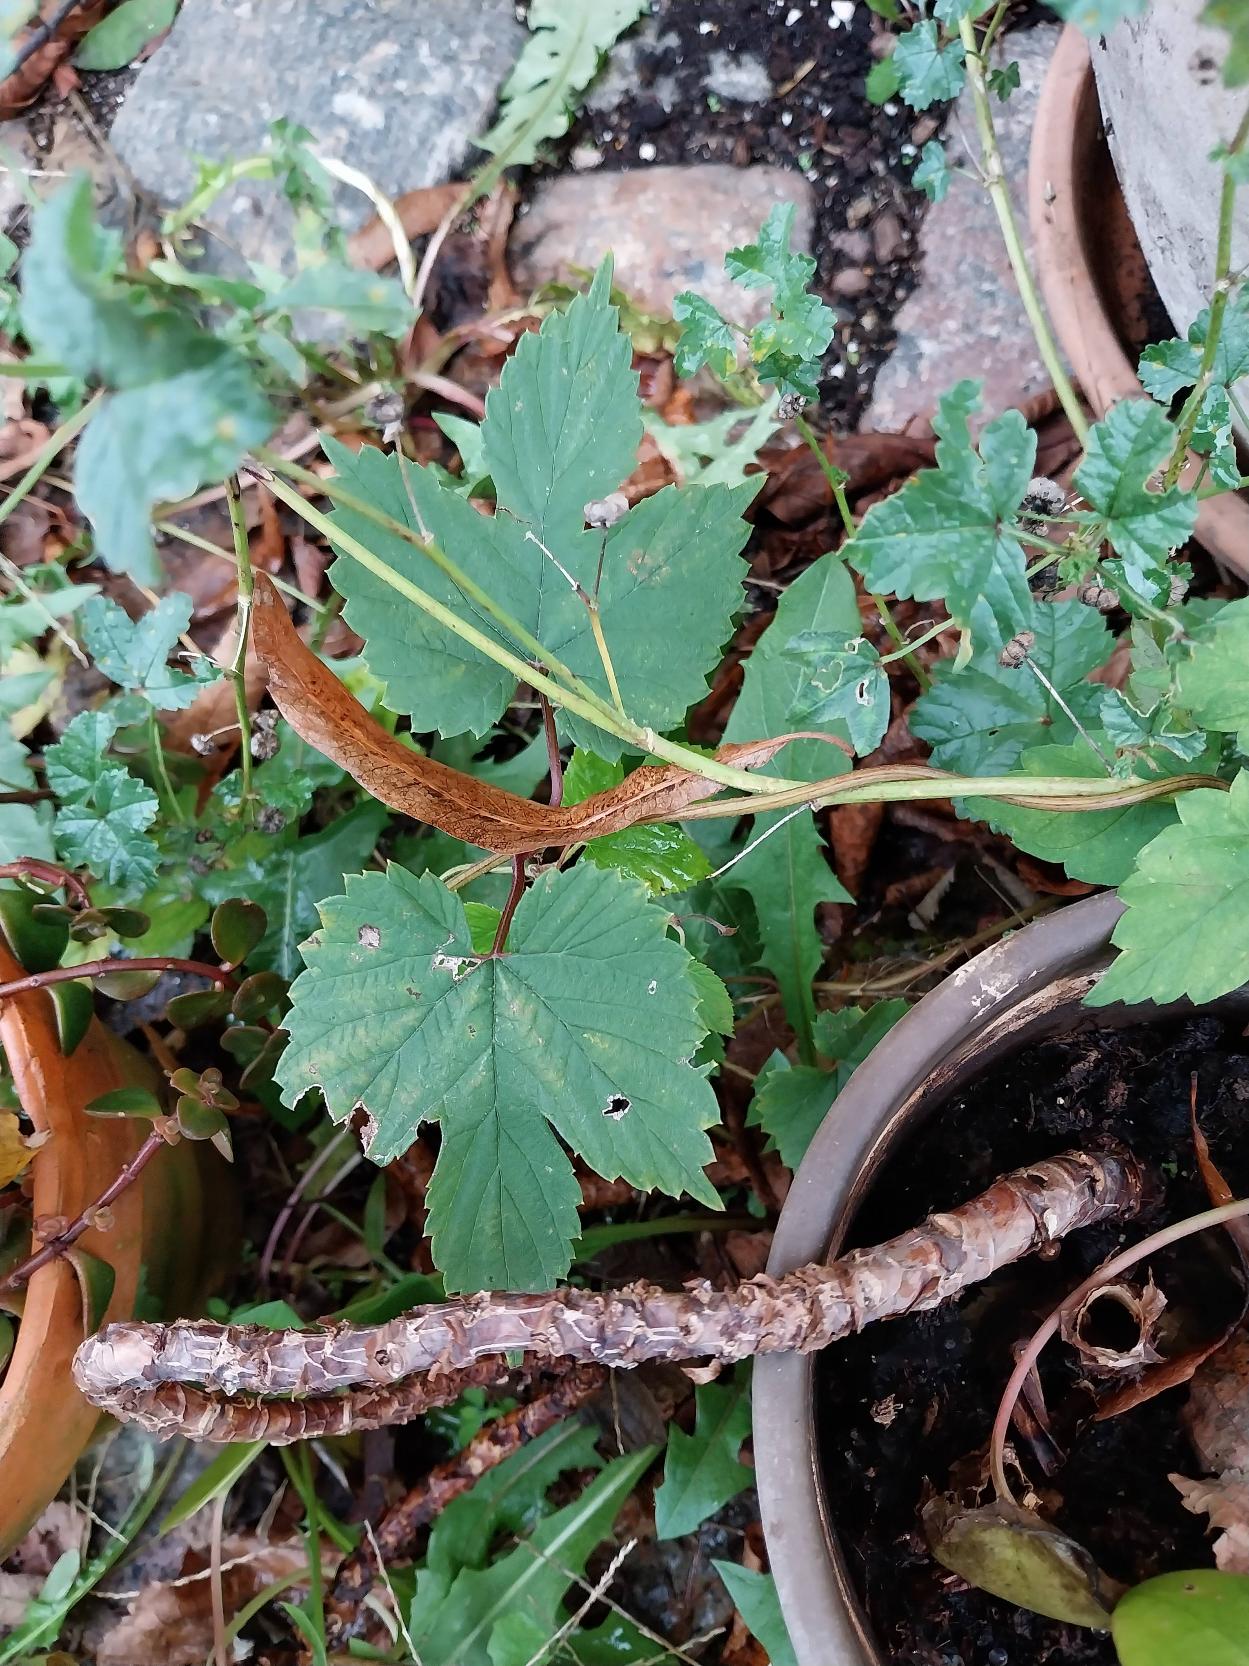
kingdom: Plantae
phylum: Tracheophyta
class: Magnoliopsida
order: Rosales
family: Cannabaceae
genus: Humulus
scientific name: Humulus lupulus
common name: Humle
